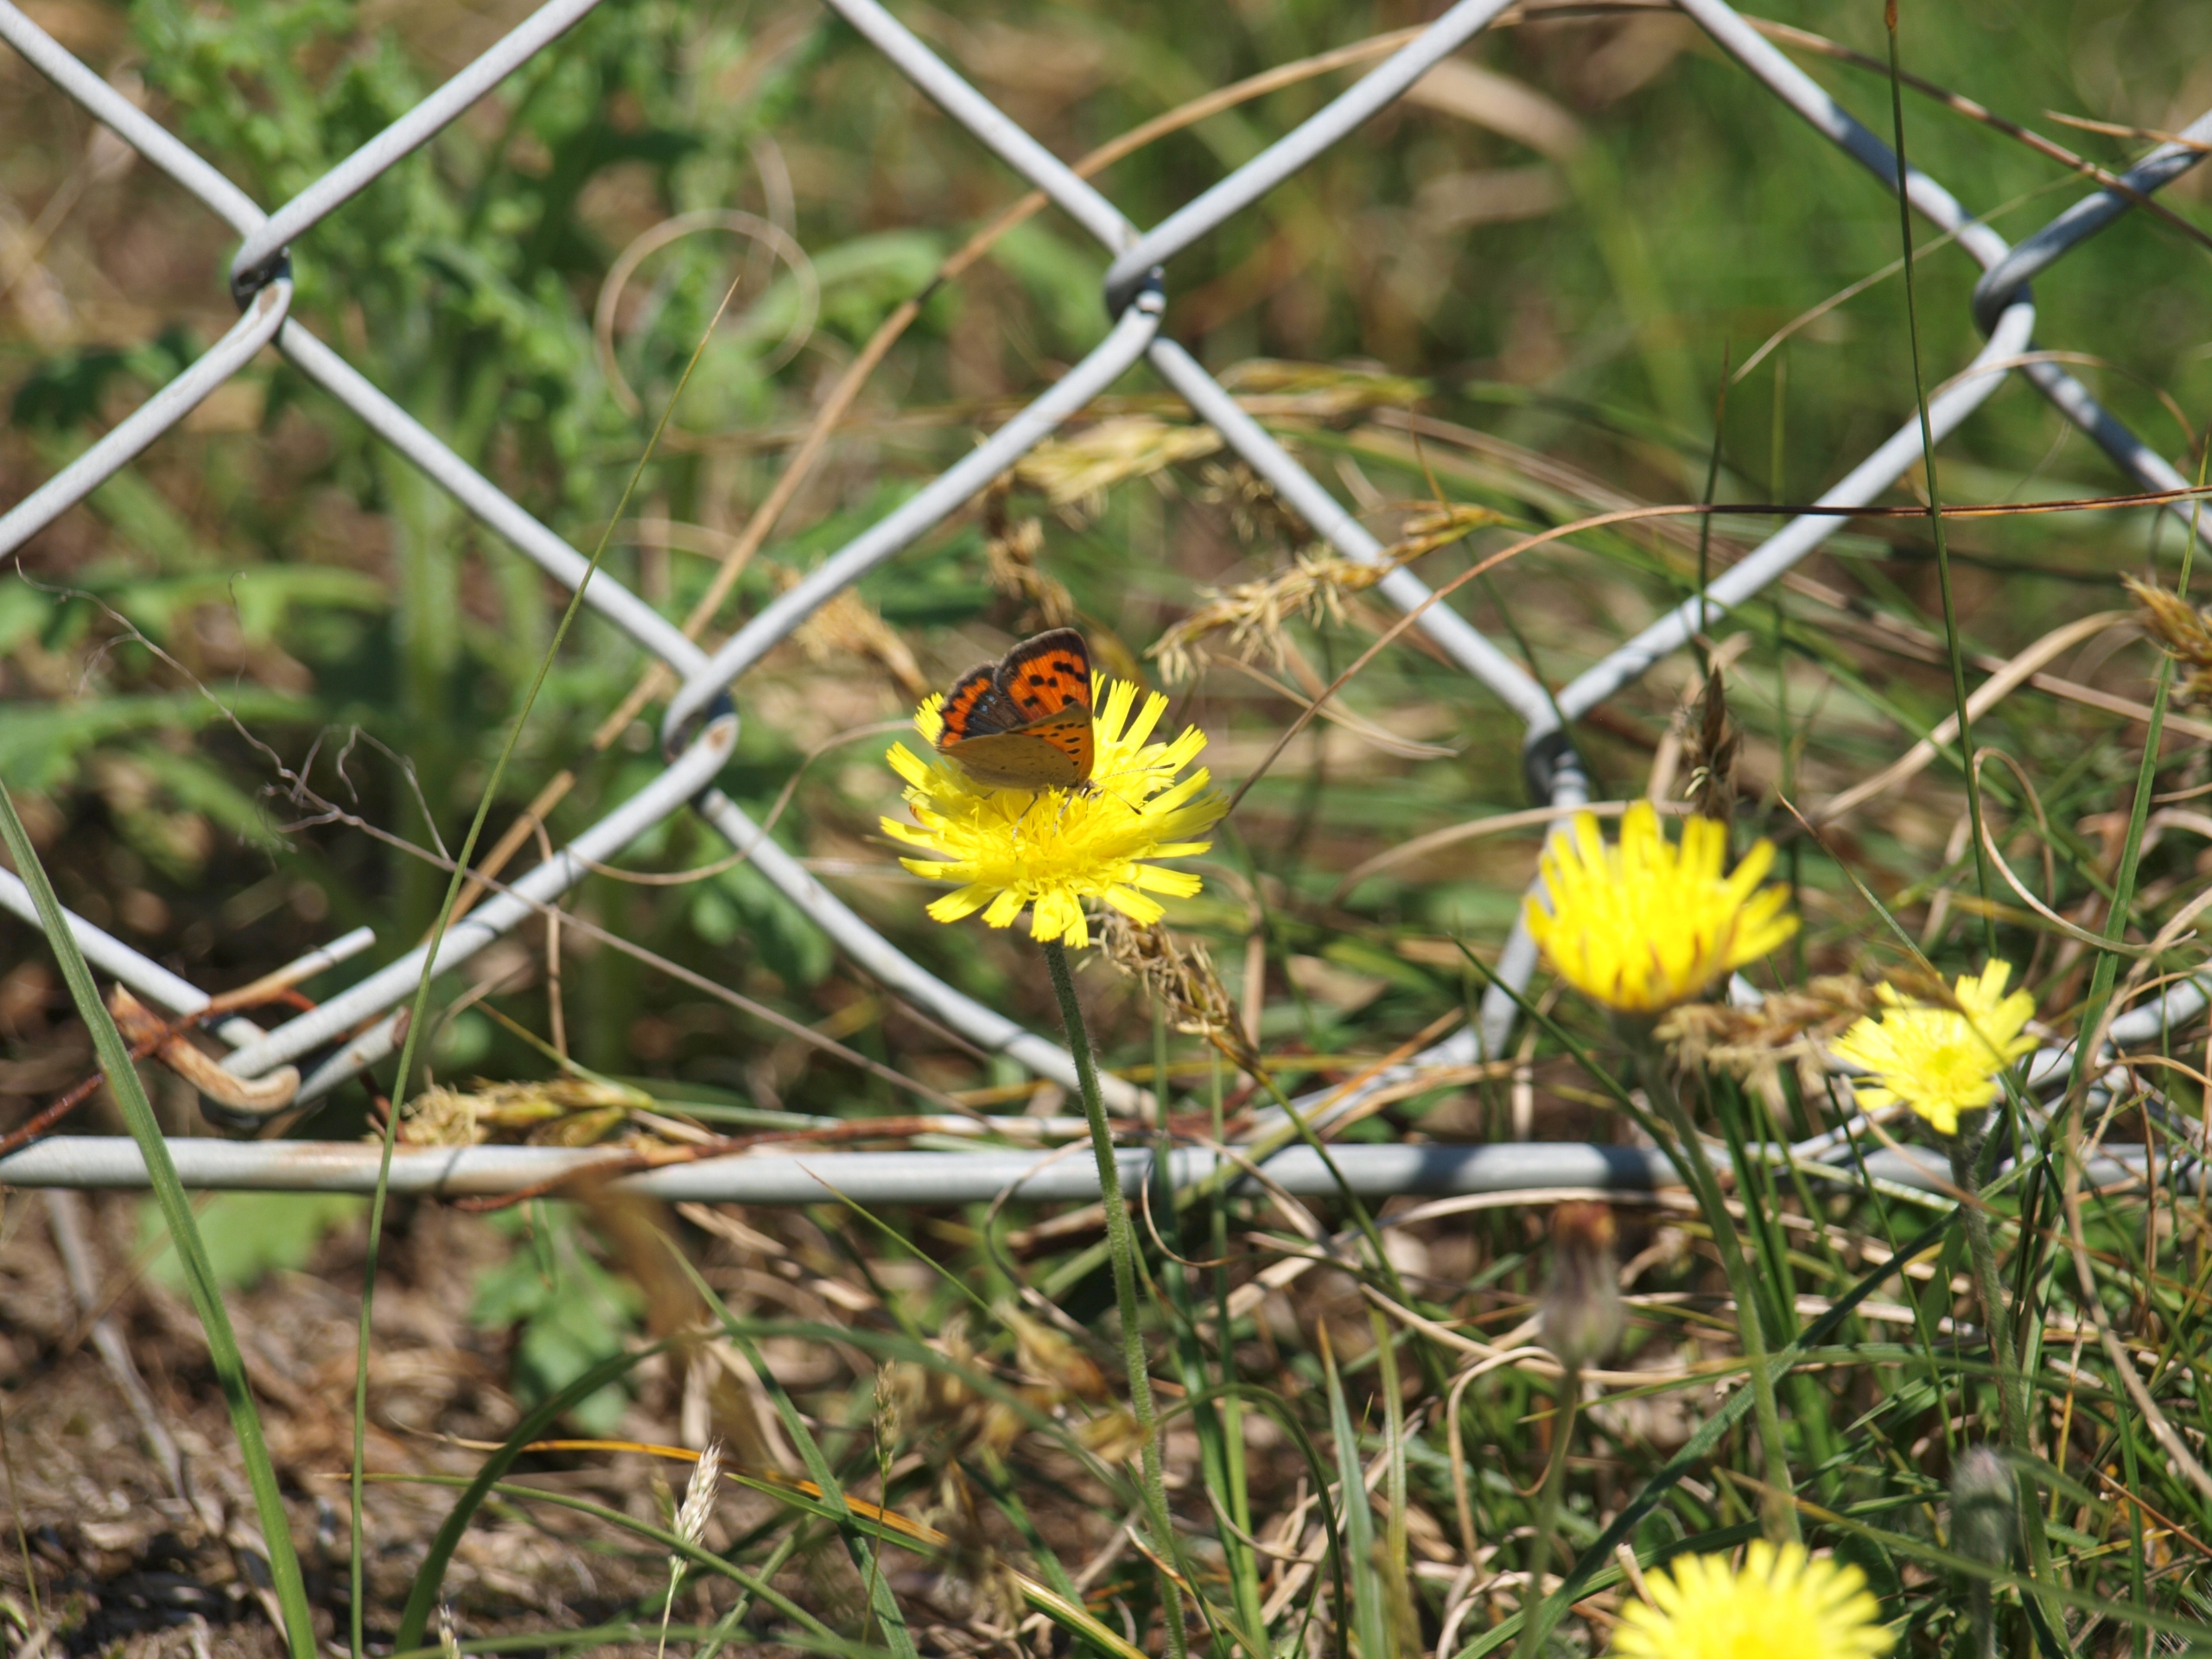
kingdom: Animalia
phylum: Arthropoda
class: Insecta
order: Lepidoptera
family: Lycaenidae
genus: Lycaena
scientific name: Lycaena phlaeas
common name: Lille ildfugl
